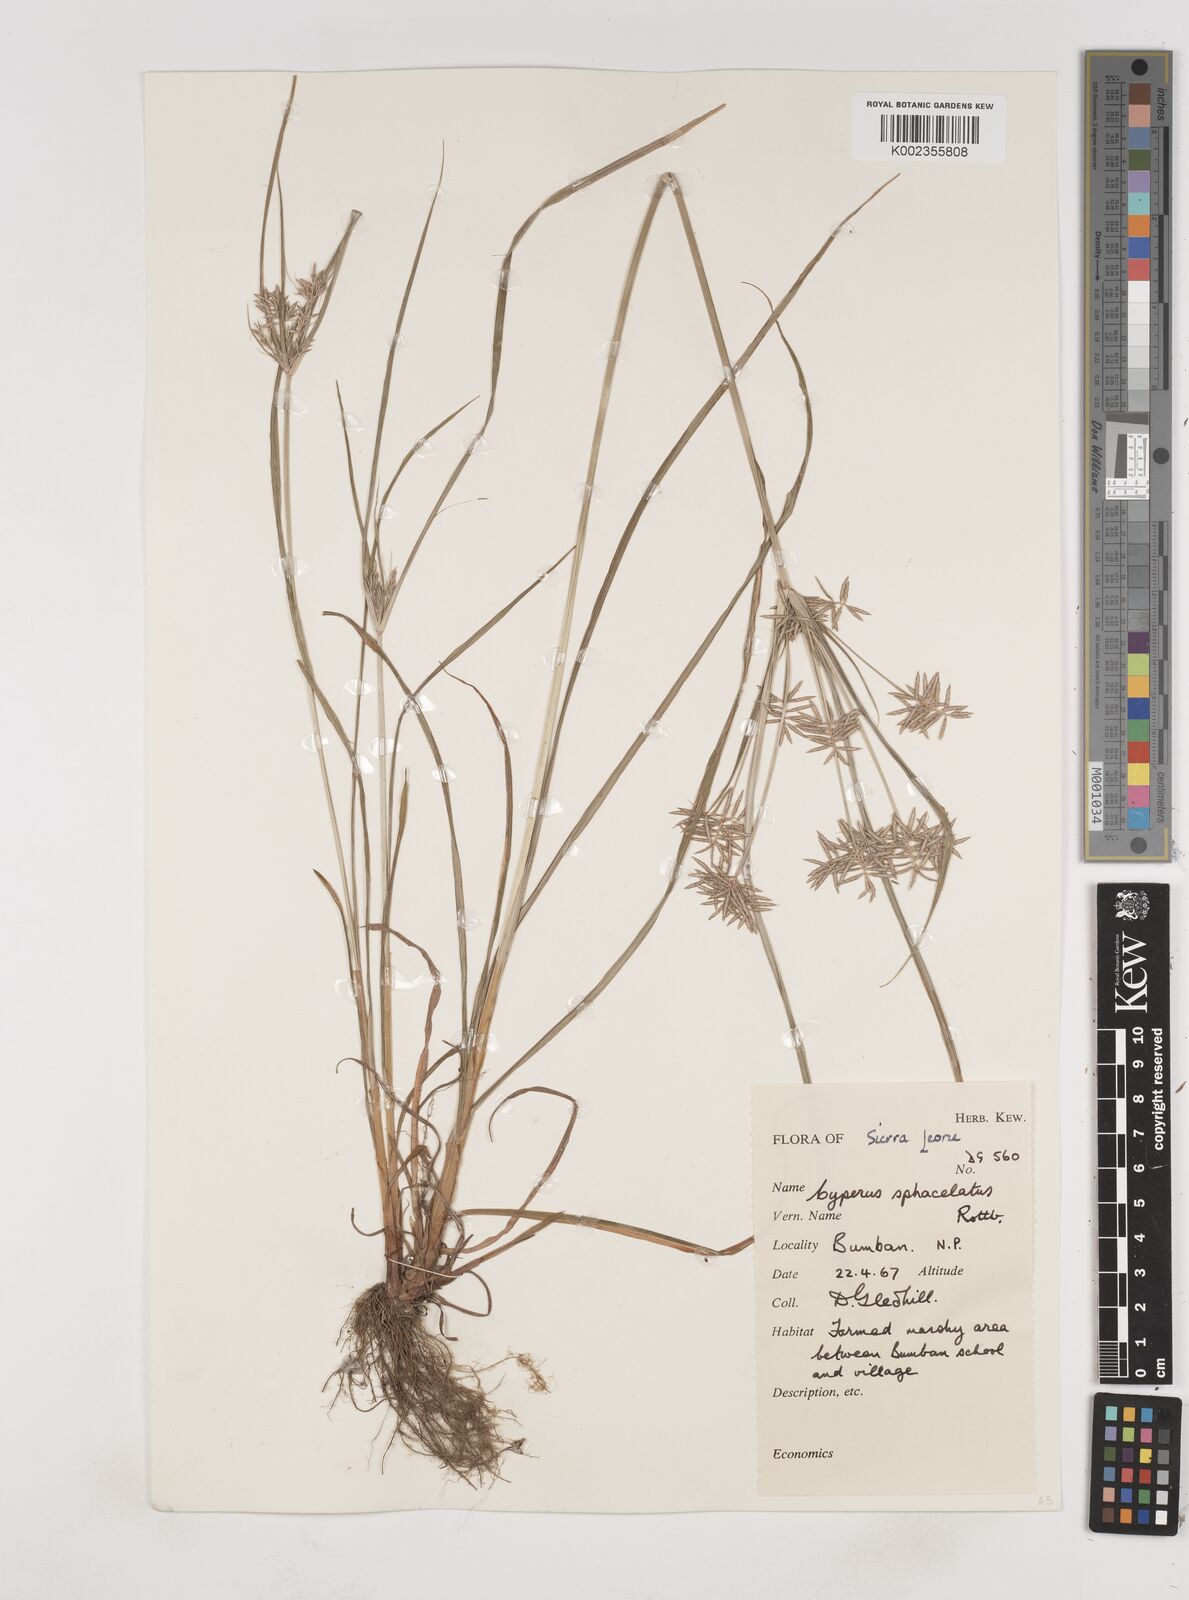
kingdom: Plantae
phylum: Tracheophyta
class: Liliopsida
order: Poales
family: Cyperaceae
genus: Cyperus
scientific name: Cyperus sphacelatus
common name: Roadside flatsedge
